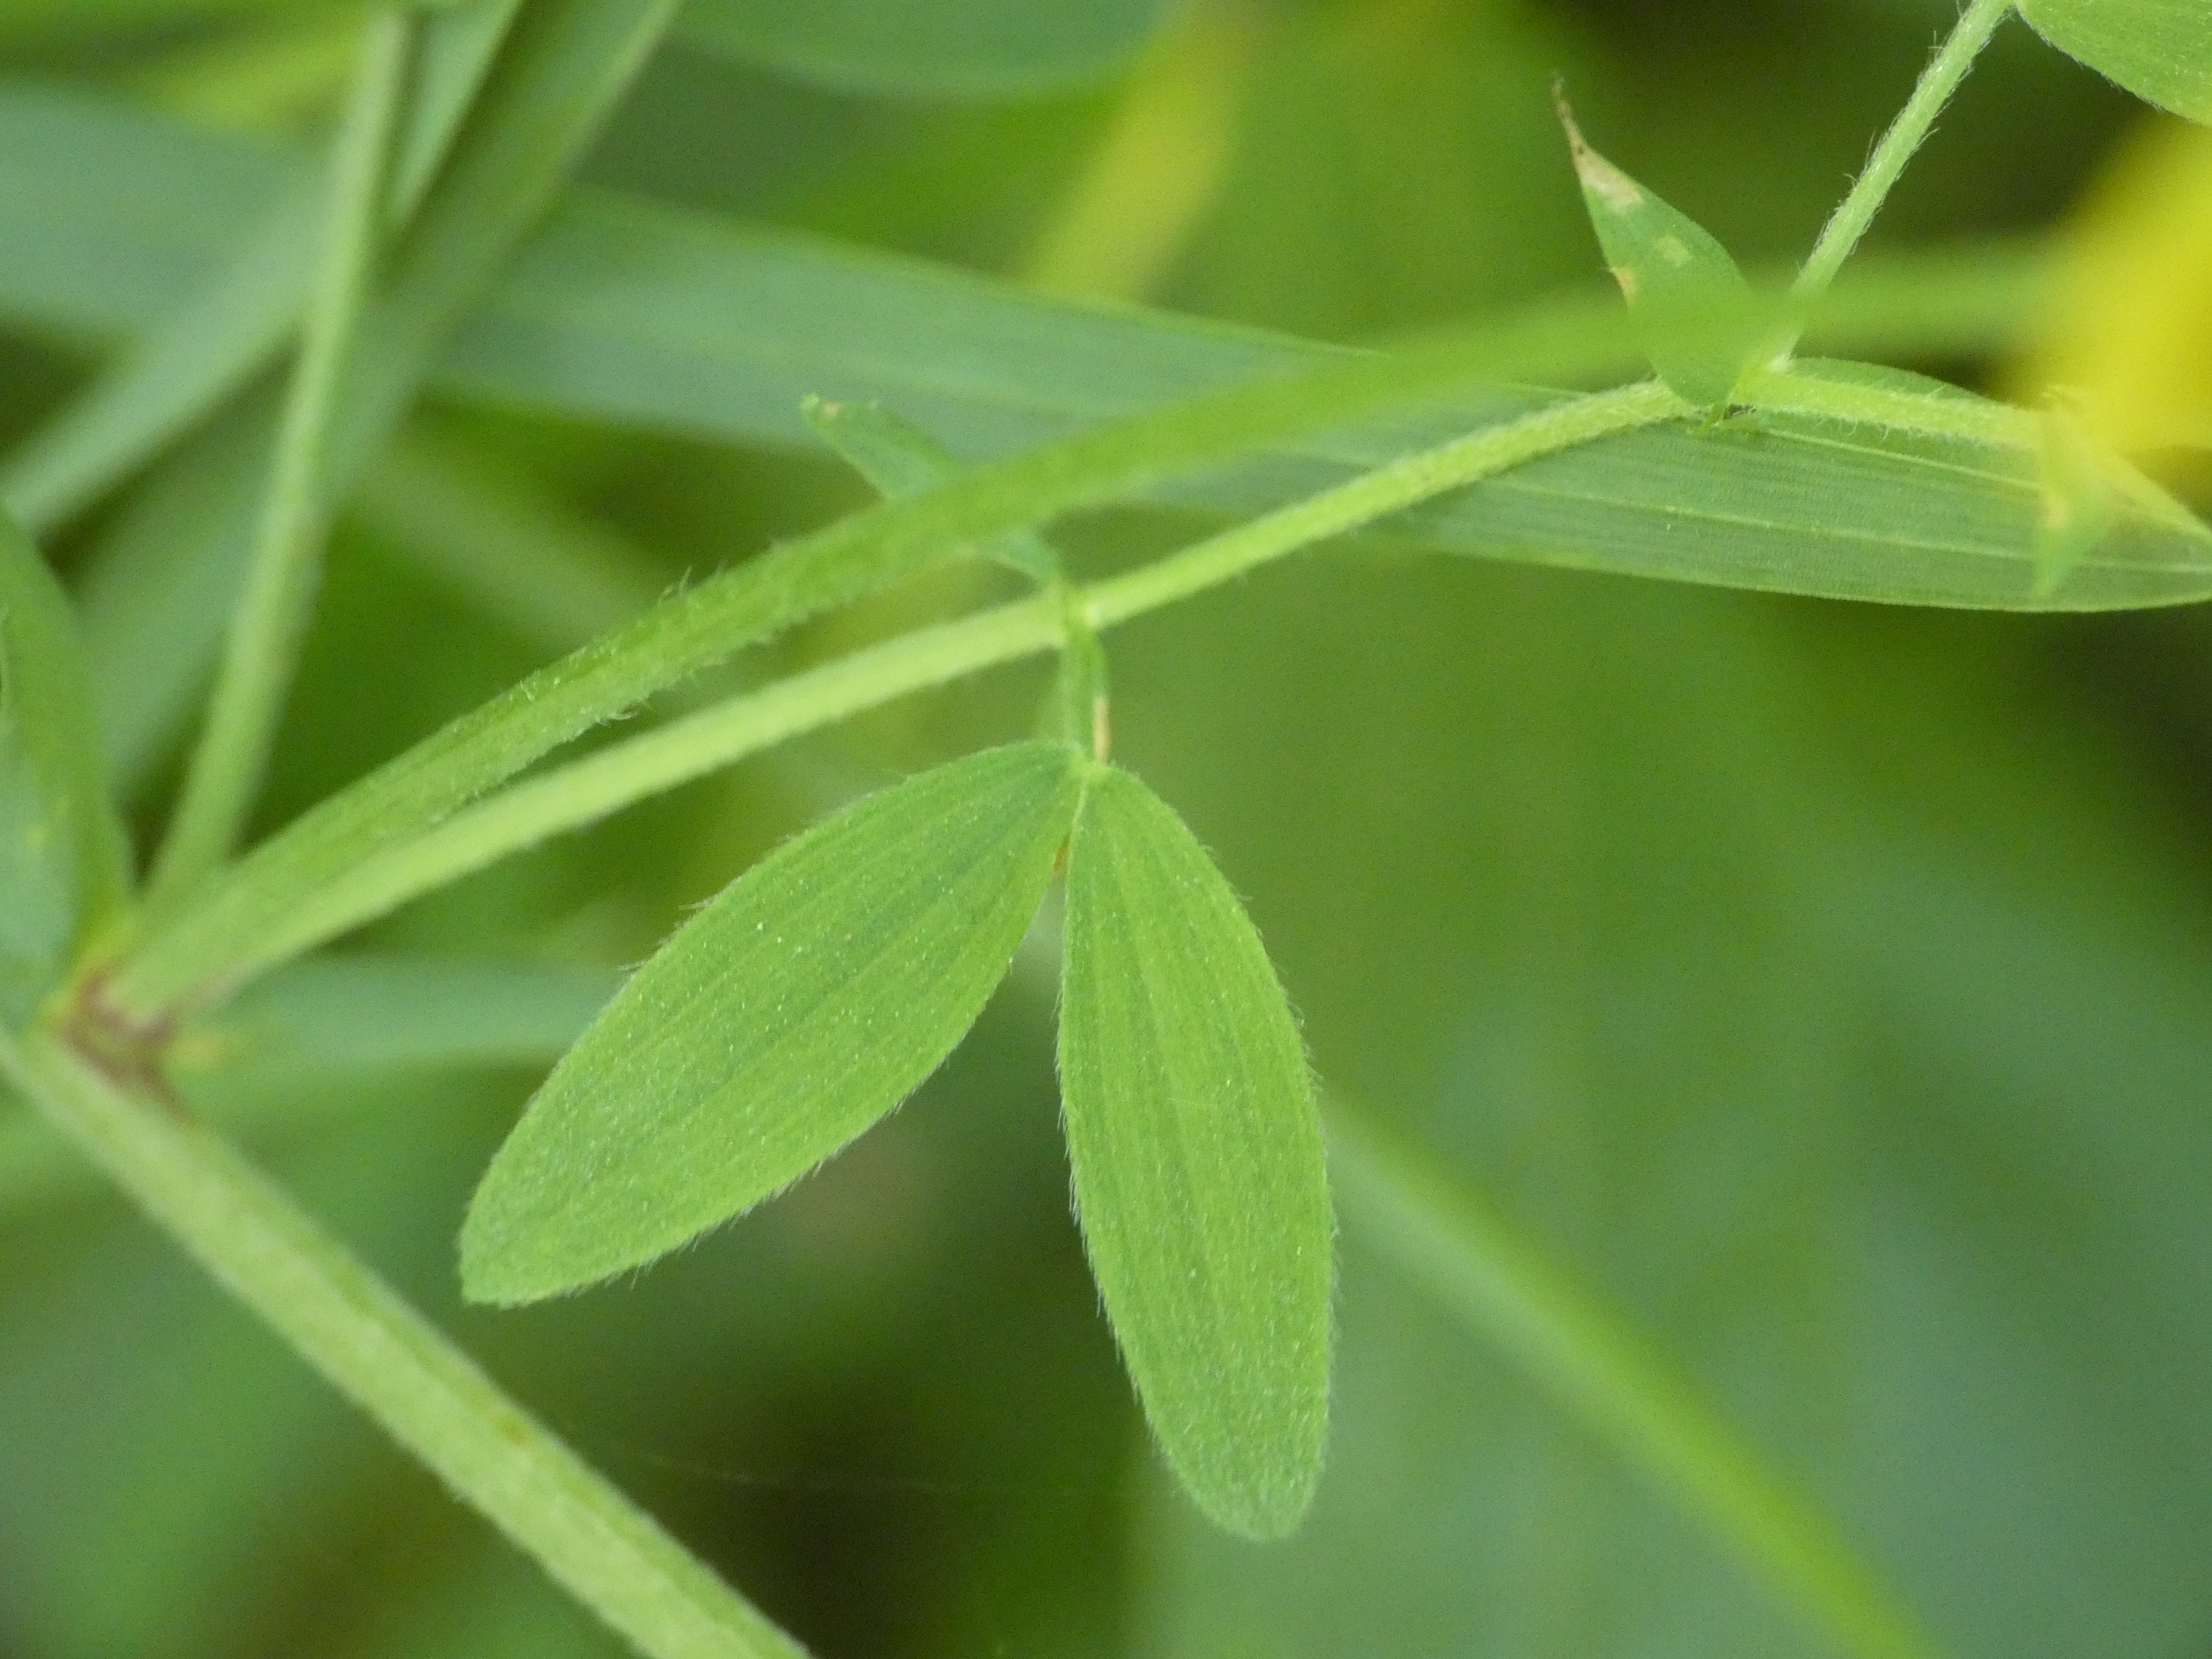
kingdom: Plantae
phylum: Tracheophyta
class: Magnoliopsida
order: Fabales
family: Fabaceae
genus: Lathyrus
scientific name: Lathyrus pratensis
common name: Gul fladbælg
